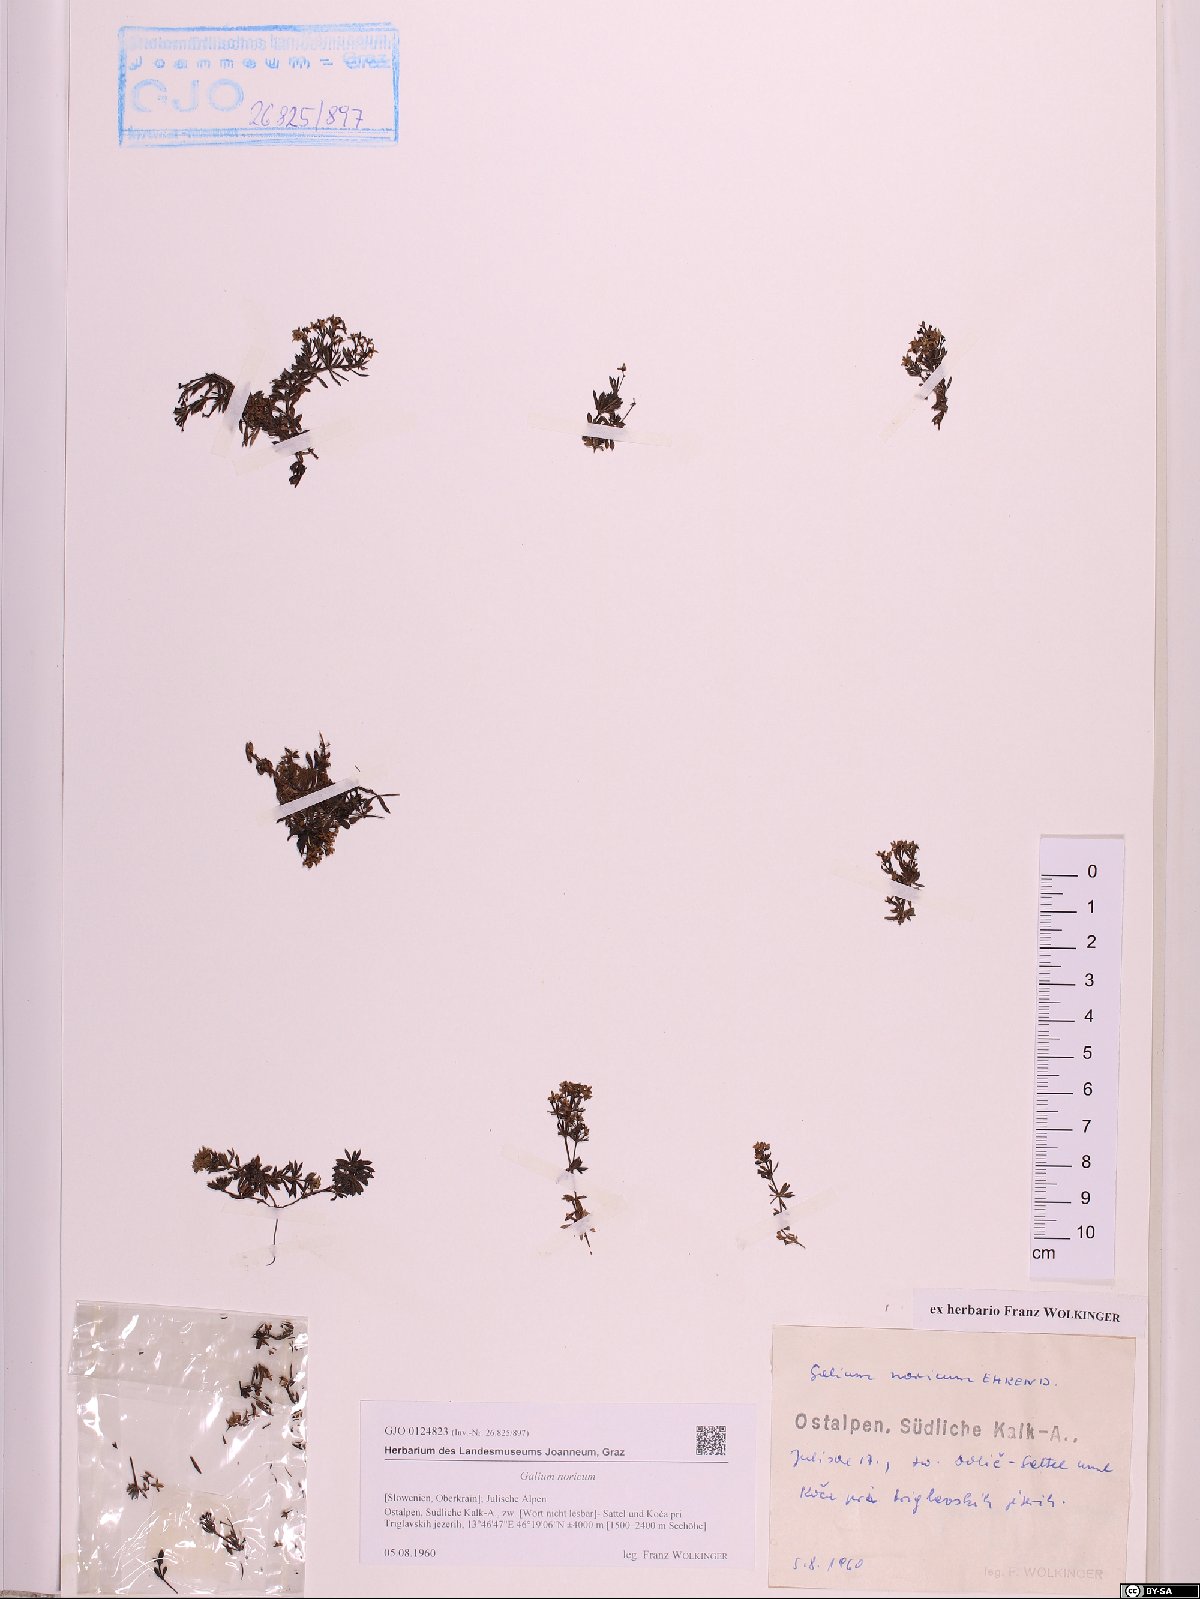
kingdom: Plantae
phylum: Tracheophyta
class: Magnoliopsida
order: Gentianales
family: Rubiaceae
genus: Galium
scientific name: Galium noricum
